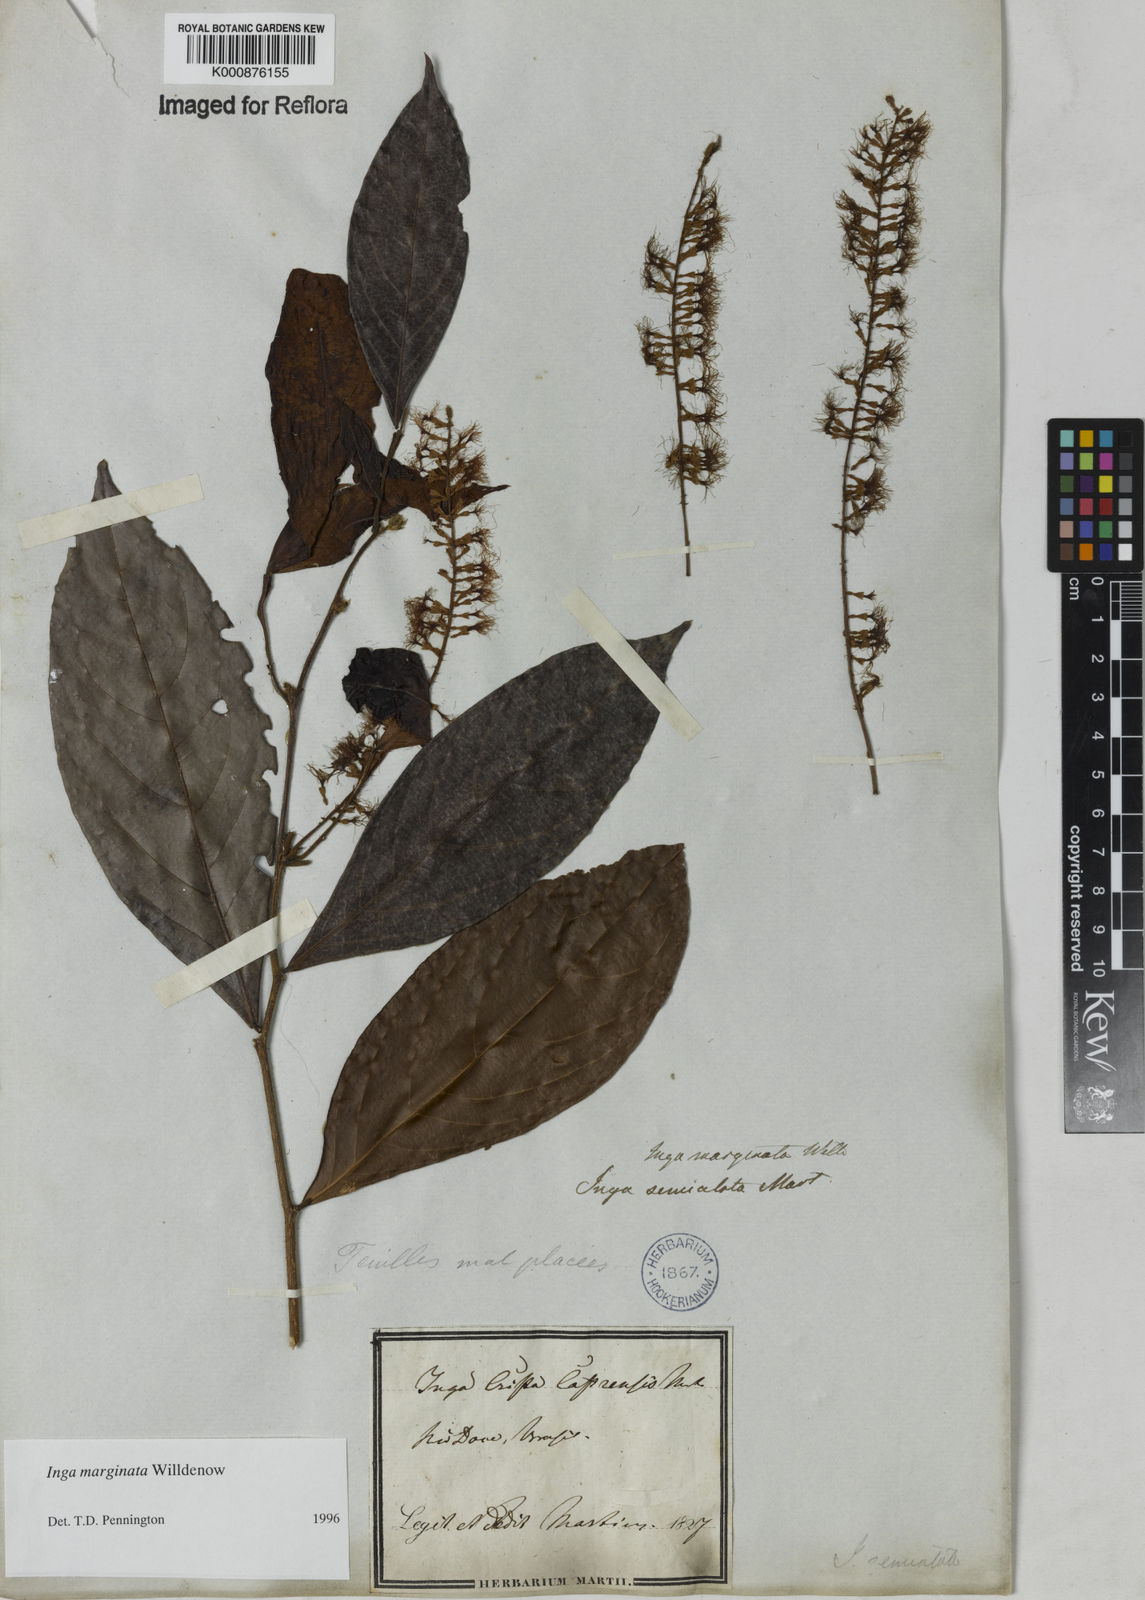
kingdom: Plantae
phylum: Tracheophyta
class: Magnoliopsida
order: Fabales
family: Fabaceae
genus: Inga
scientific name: Inga marginata
